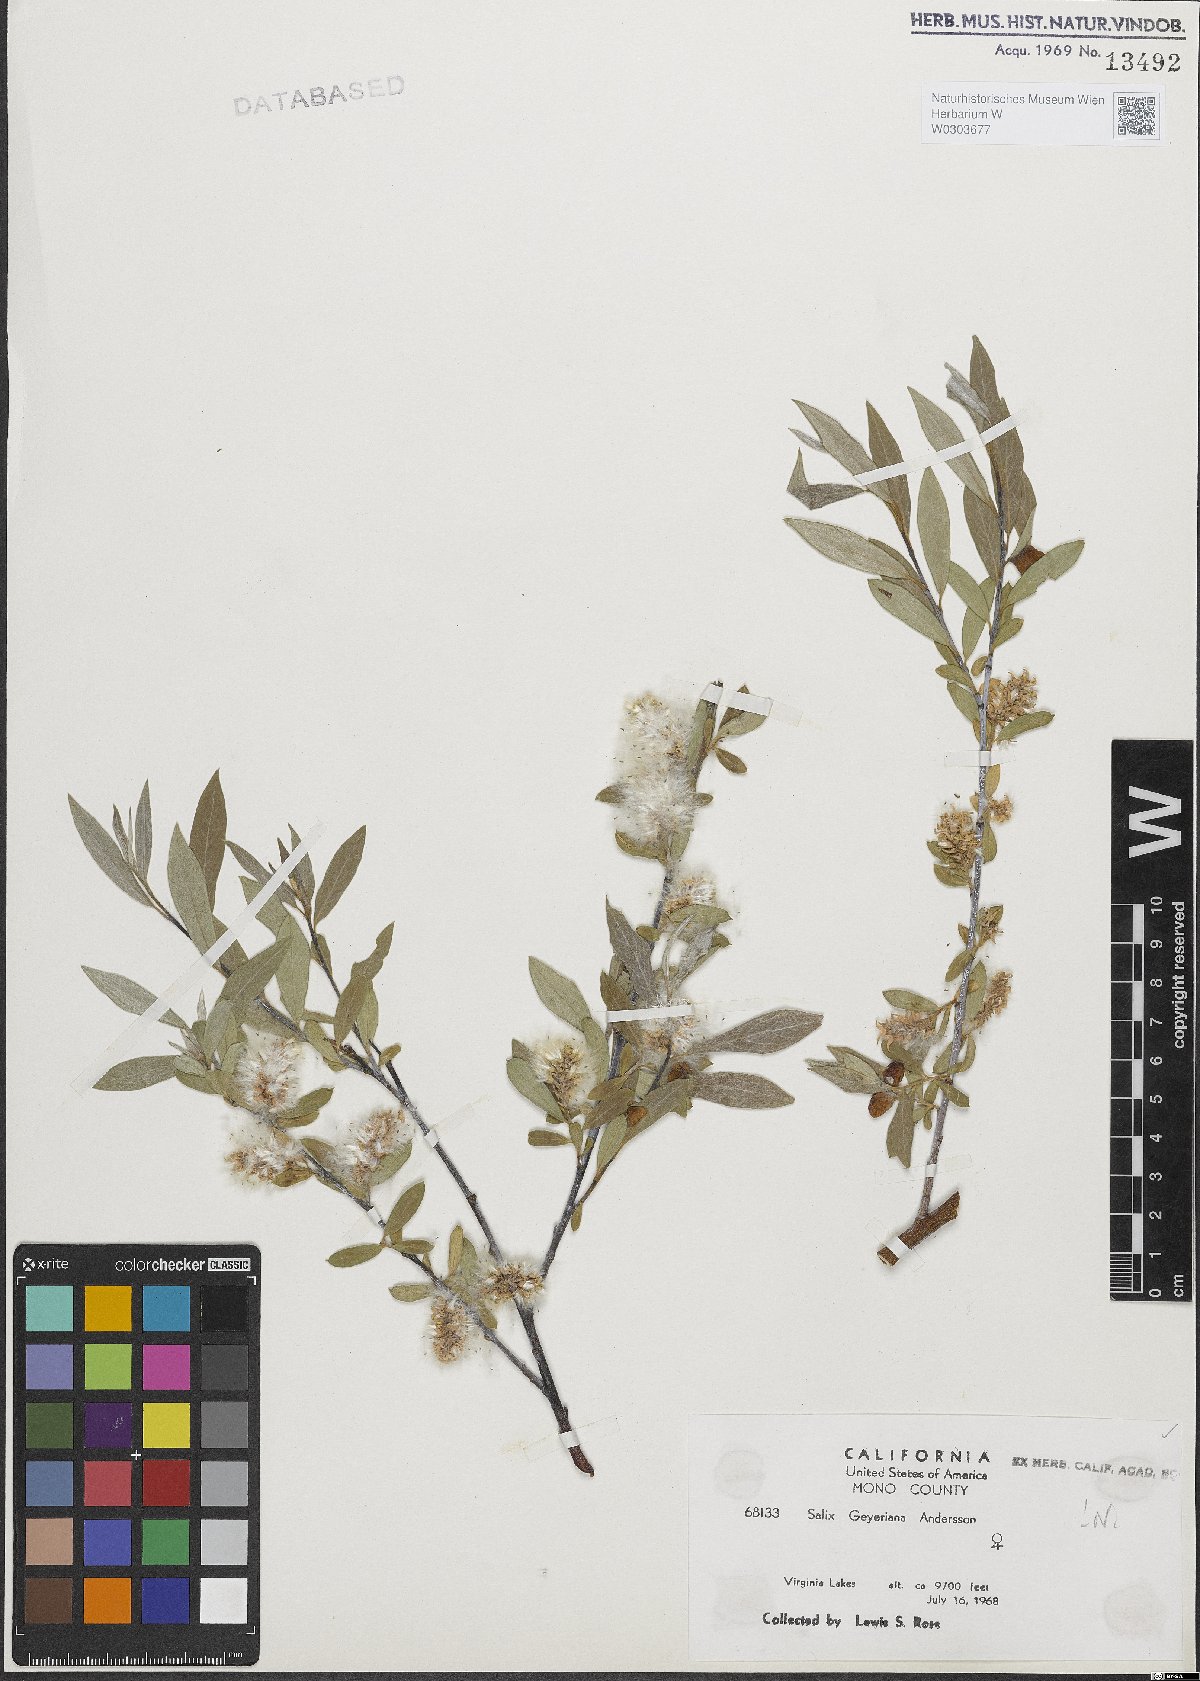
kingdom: Plantae
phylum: Tracheophyta
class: Magnoliopsida
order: Malpighiales
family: Salicaceae
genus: Salix
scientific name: Salix geyeriana
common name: Geyer's willow
